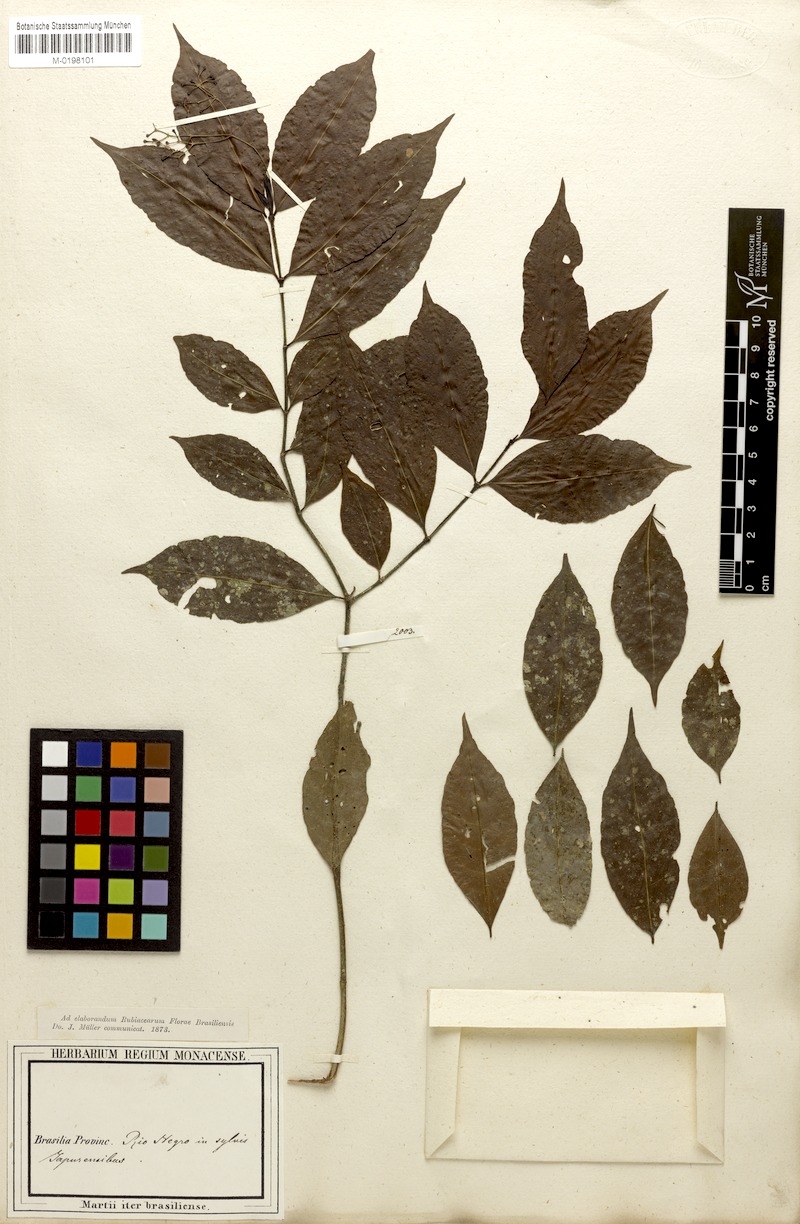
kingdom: Plantae
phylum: Tracheophyta
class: Magnoliopsida
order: Gentianales
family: Rubiaceae
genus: Psychotria
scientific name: Psychotria capillacea
